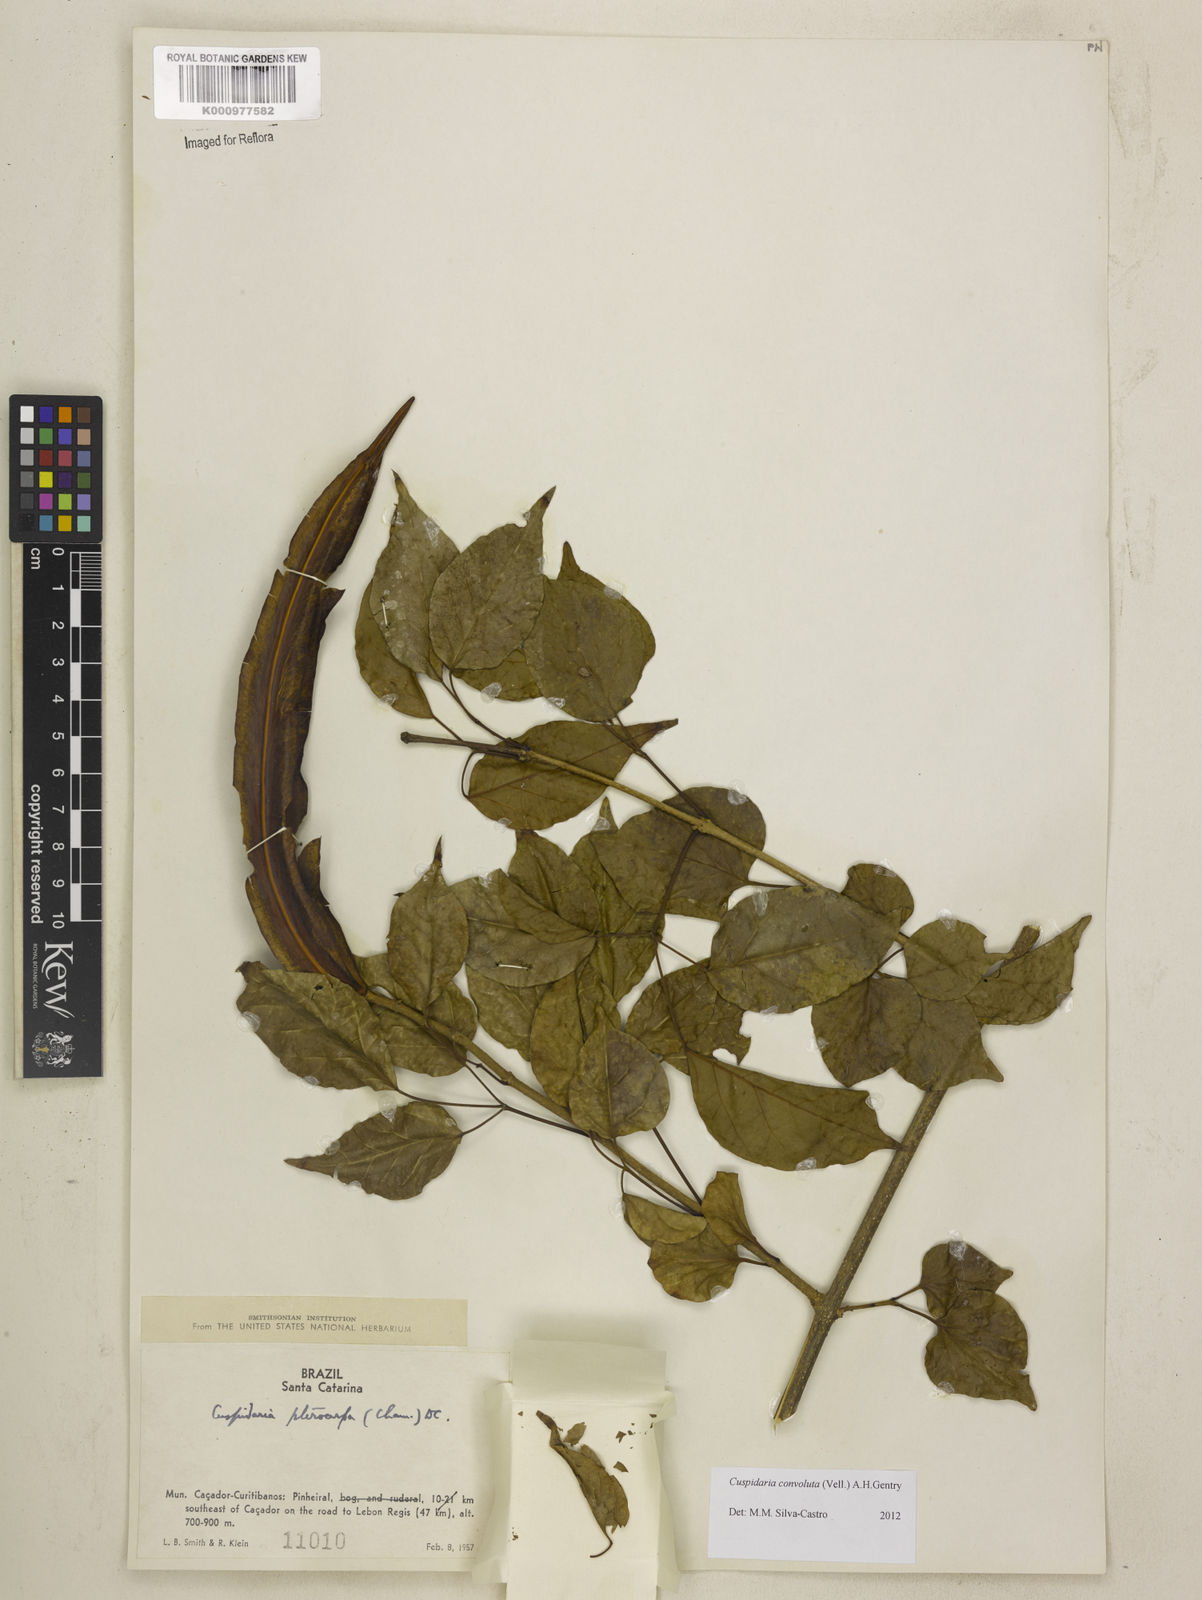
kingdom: Plantae
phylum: Tracheophyta
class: Magnoliopsida
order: Lamiales
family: Bignoniaceae
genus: Cuspidaria
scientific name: Cuspidaria convoluta
